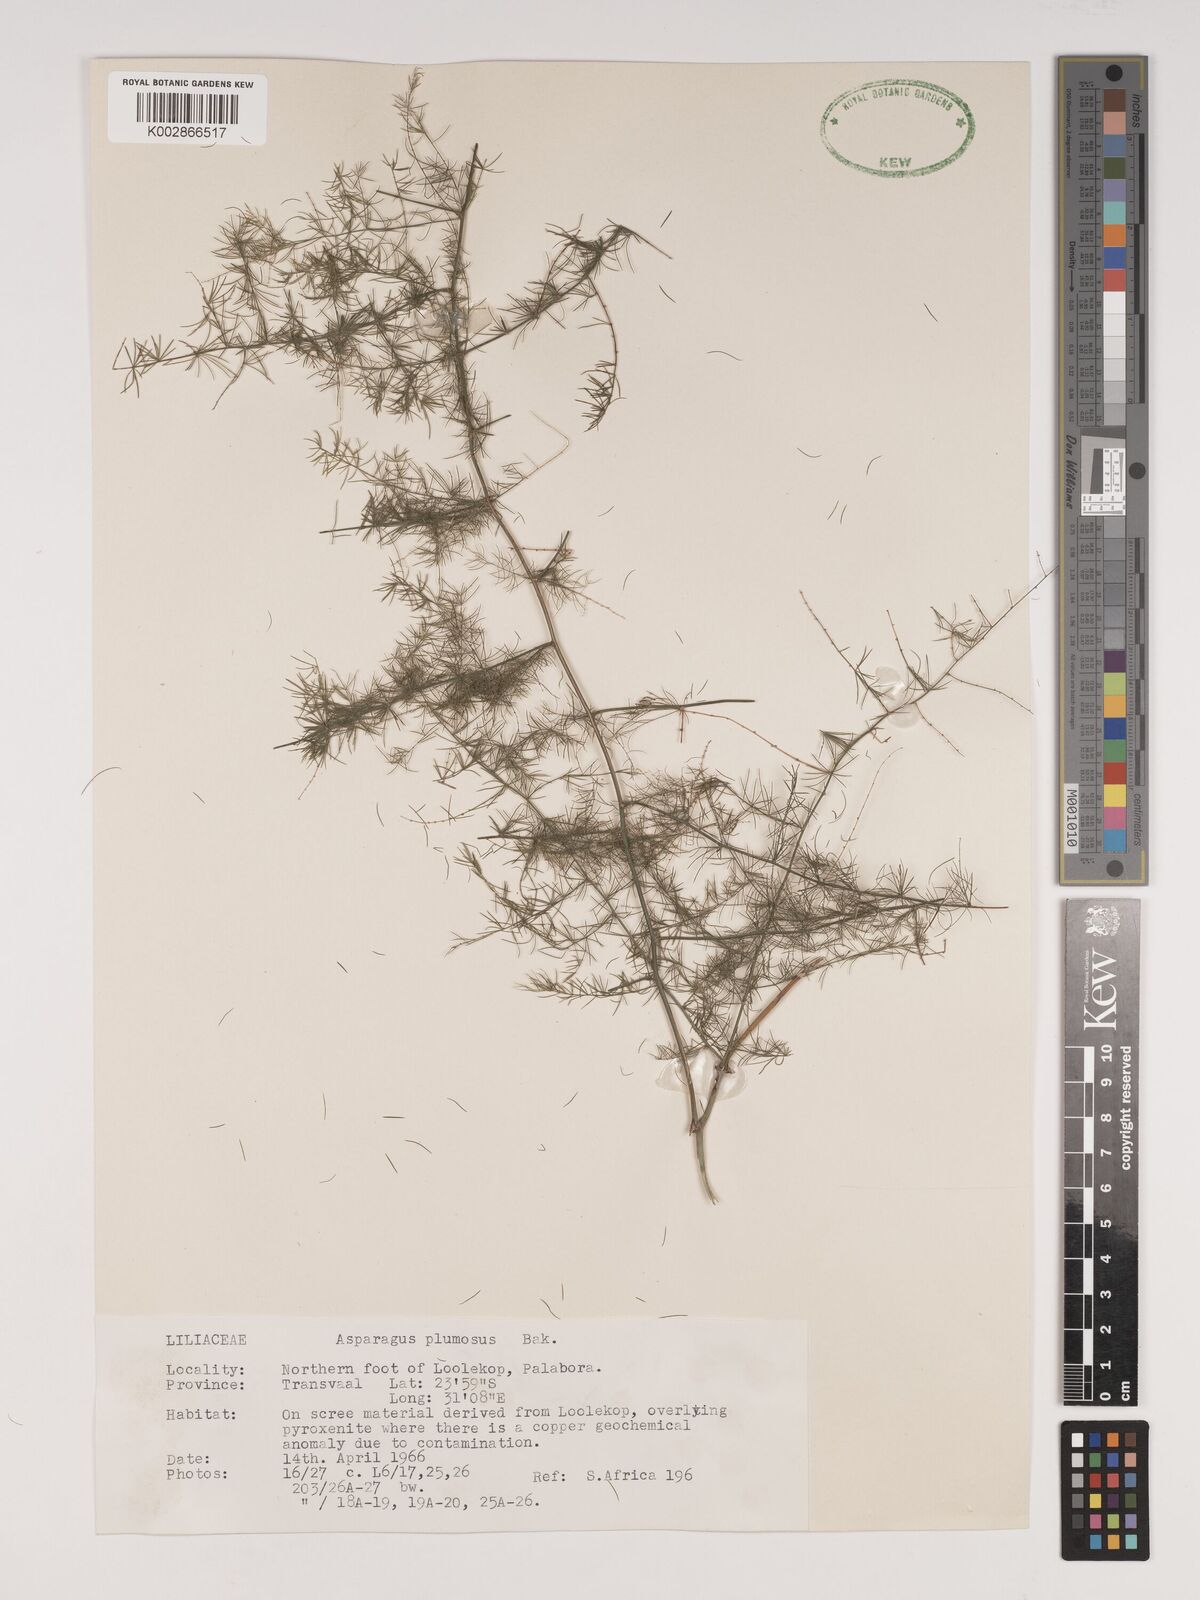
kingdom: Plantae
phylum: Tracheophyta
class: Liliopsida
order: Asparagales
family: Asparagaceae
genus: Asparagus
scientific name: Asparagus setaceus
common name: Common asparagus fern
